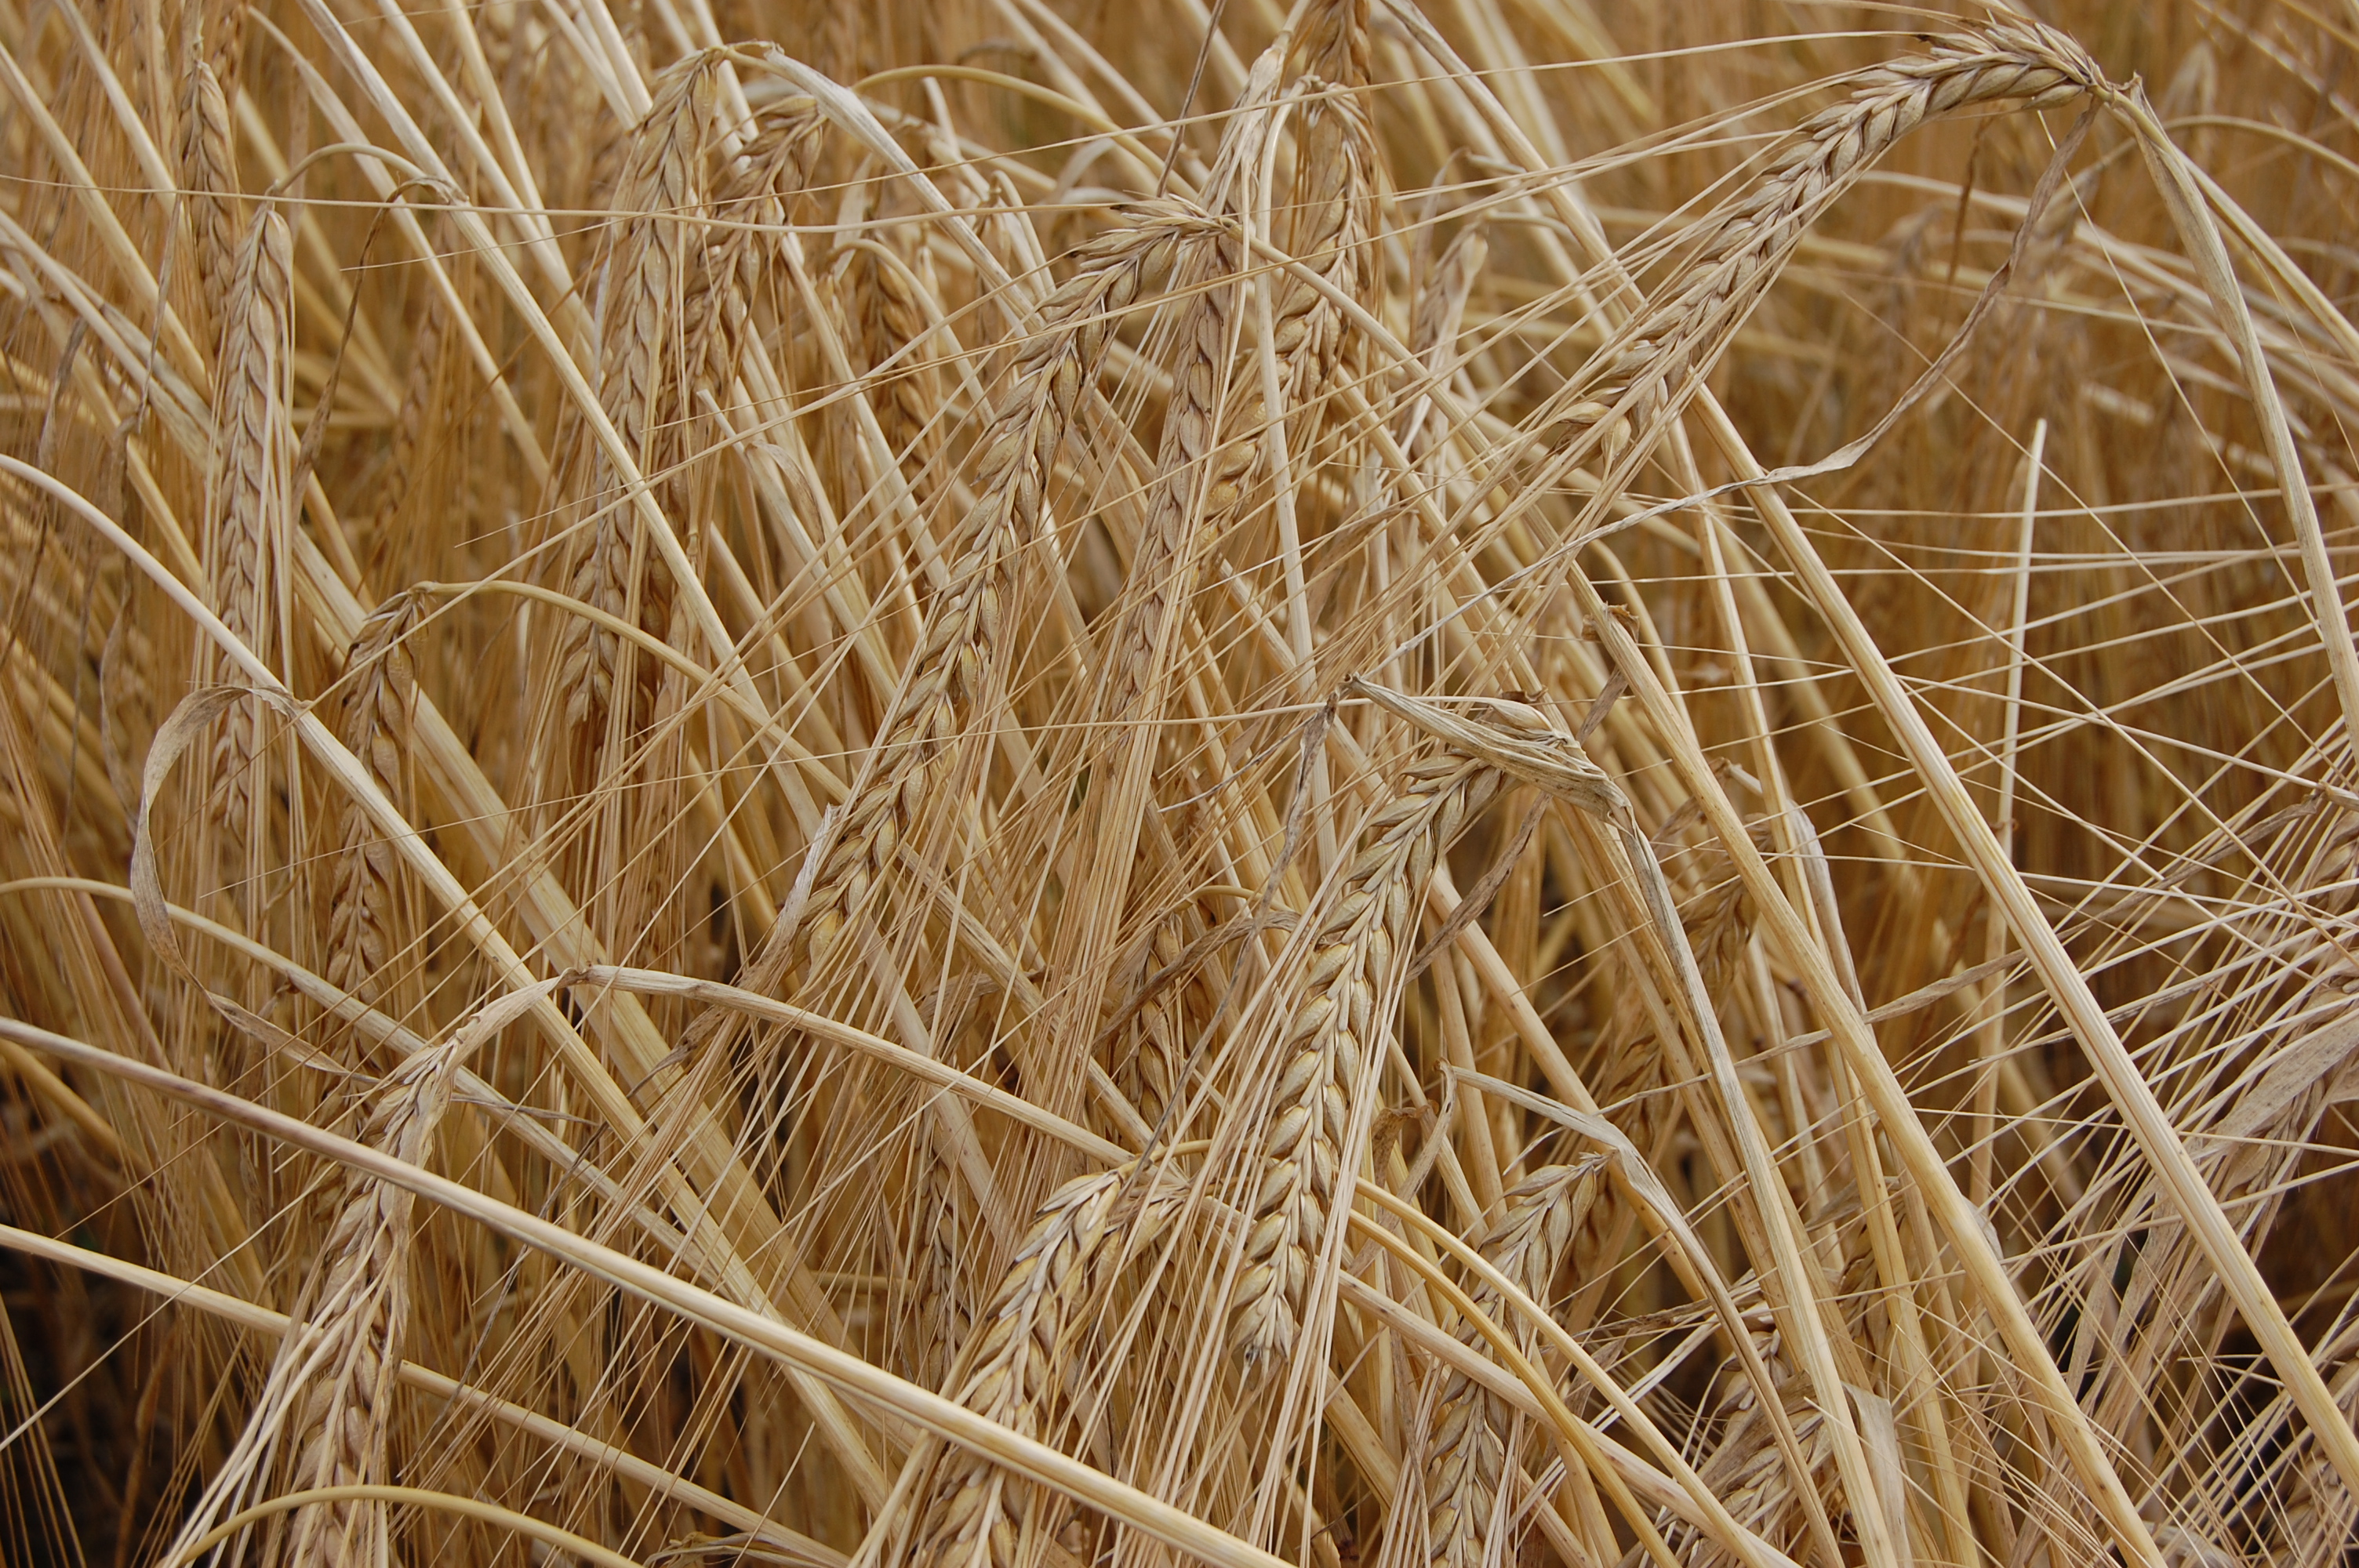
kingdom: Plantae
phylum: Tracheophyta
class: Liliopsida
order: Poales
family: Poaceae
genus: Hordeum
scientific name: Hordeum vulgare
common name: Common barley
